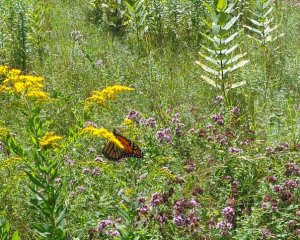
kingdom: Animalia
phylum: Arthropoda
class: Insecta
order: Lepidoptera
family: Nymphalidae
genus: Danaus
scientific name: Danaus plexippus
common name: Monarch
